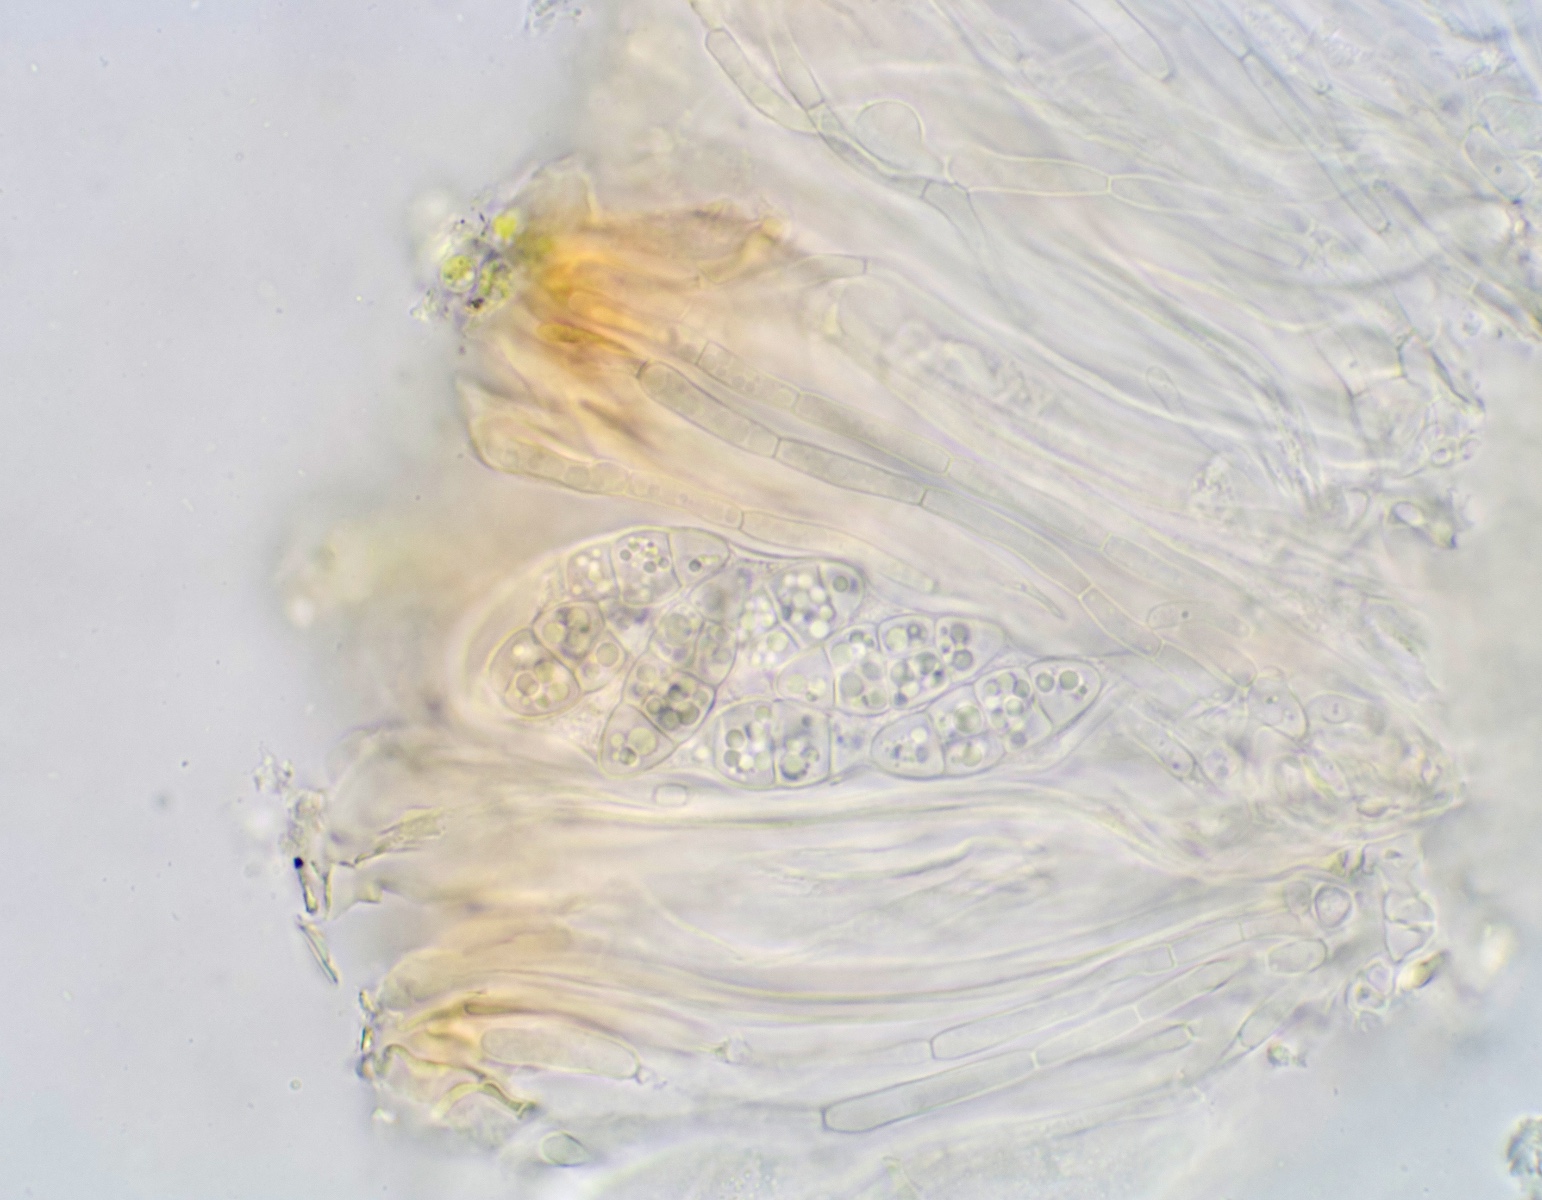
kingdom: Fungi
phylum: Ascomycota
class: Lecanoromycetes
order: Peltigerales
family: Collemataceae
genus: Enchylium
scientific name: Enchylium tenax
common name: tyk bævrelav
